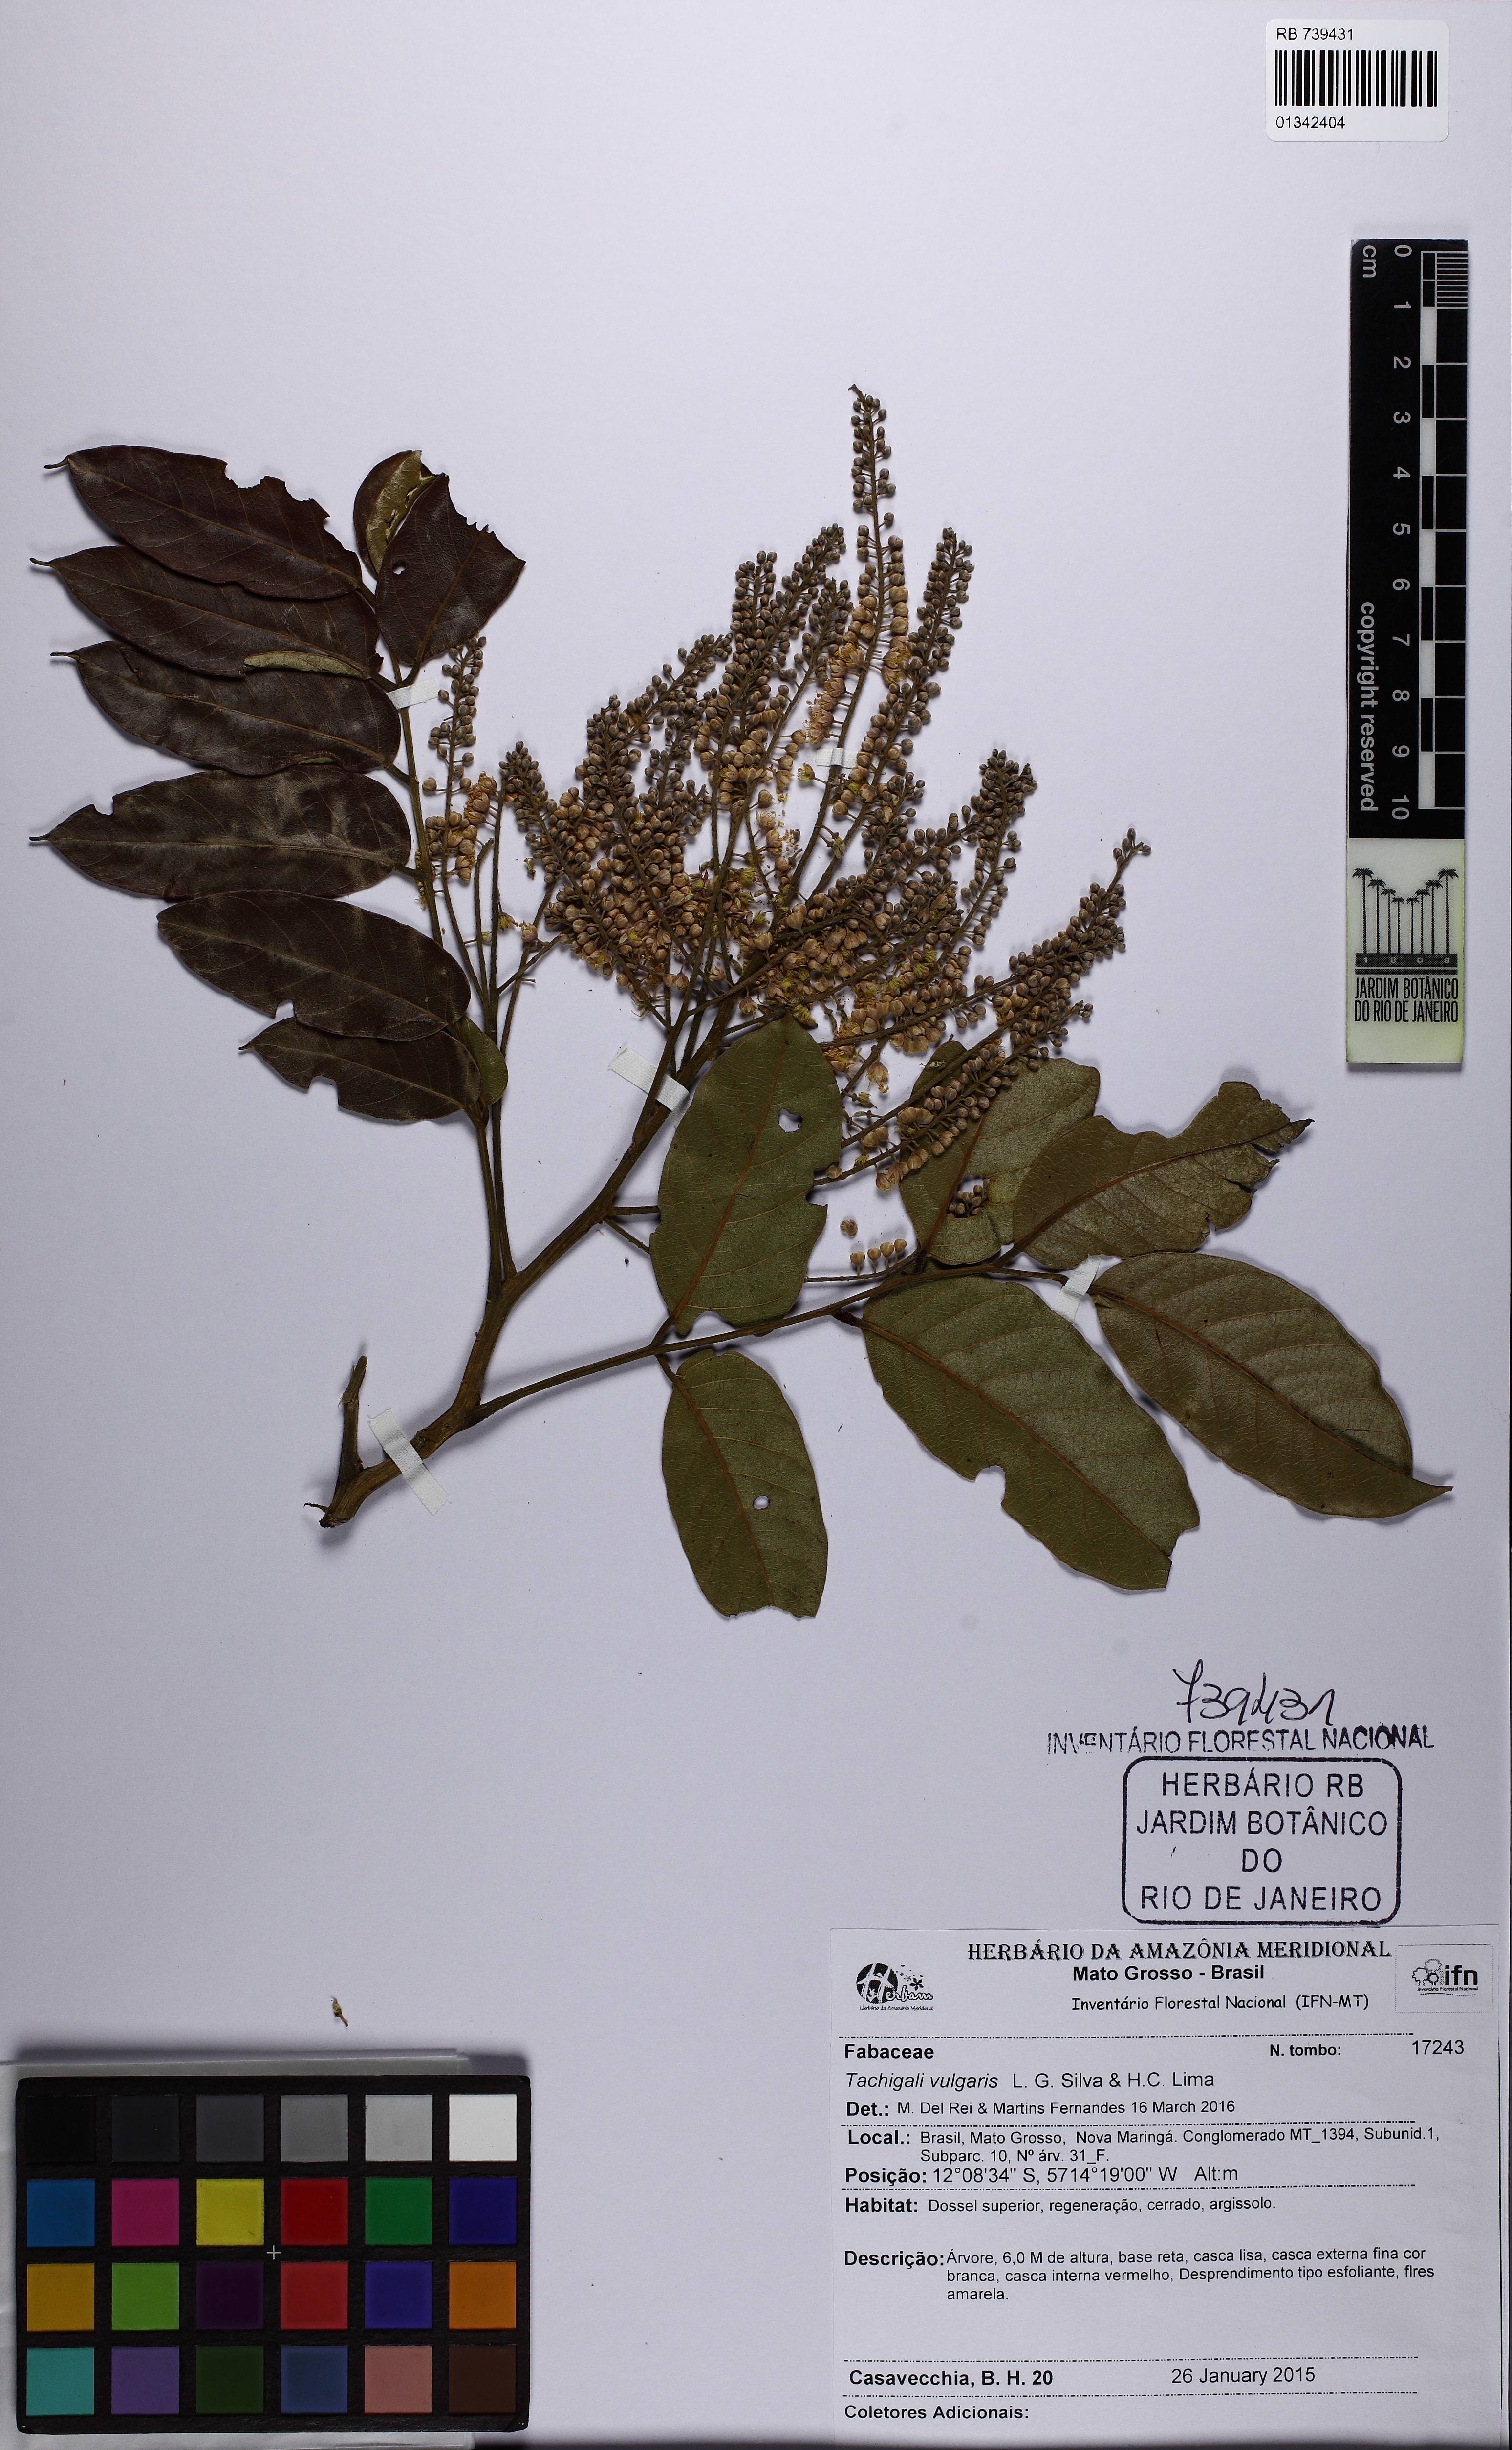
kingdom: Plantae
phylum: Tracheophyta
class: Magnoliopsida
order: Fabales
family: Fabaceae
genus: Tachigali
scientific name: Tachigali vulgaris
